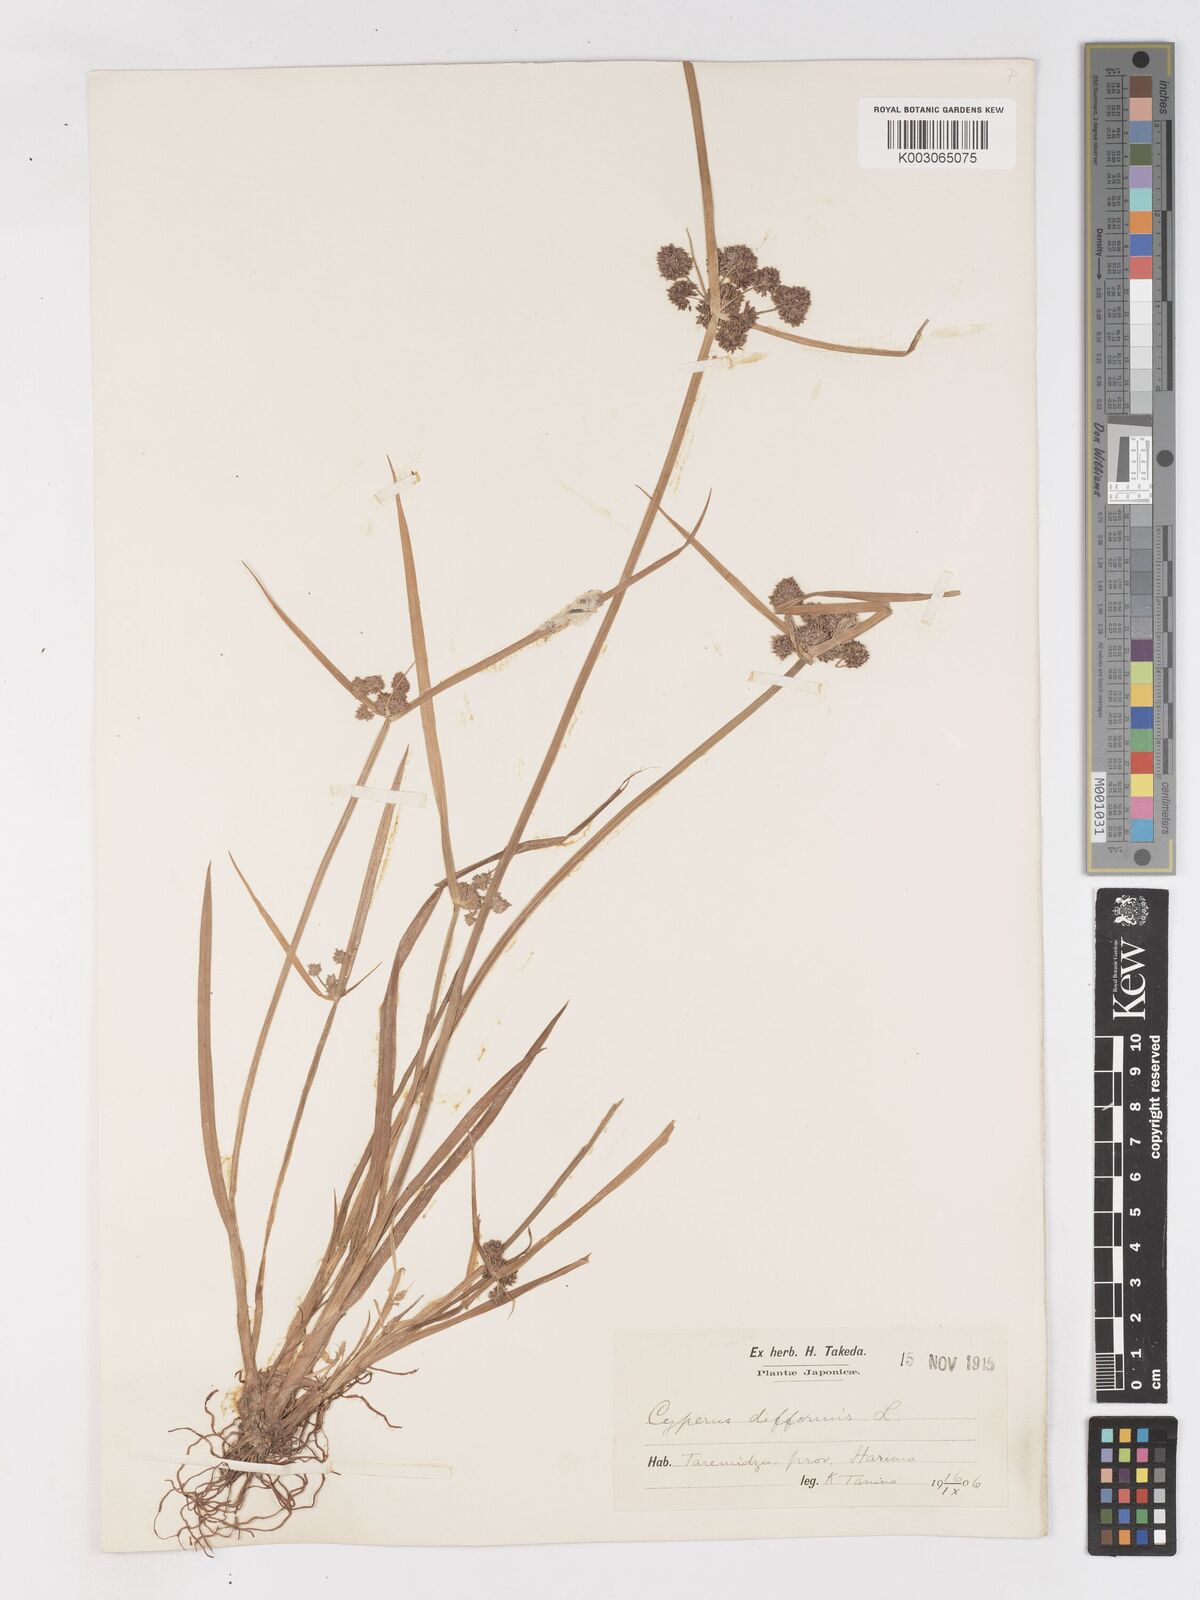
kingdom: Plantae
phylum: Tracheophyta
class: Liliopsida
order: Poales
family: Cyperaceae
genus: Cyperus
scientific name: Cyperus difformis
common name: Variable flatsedge
